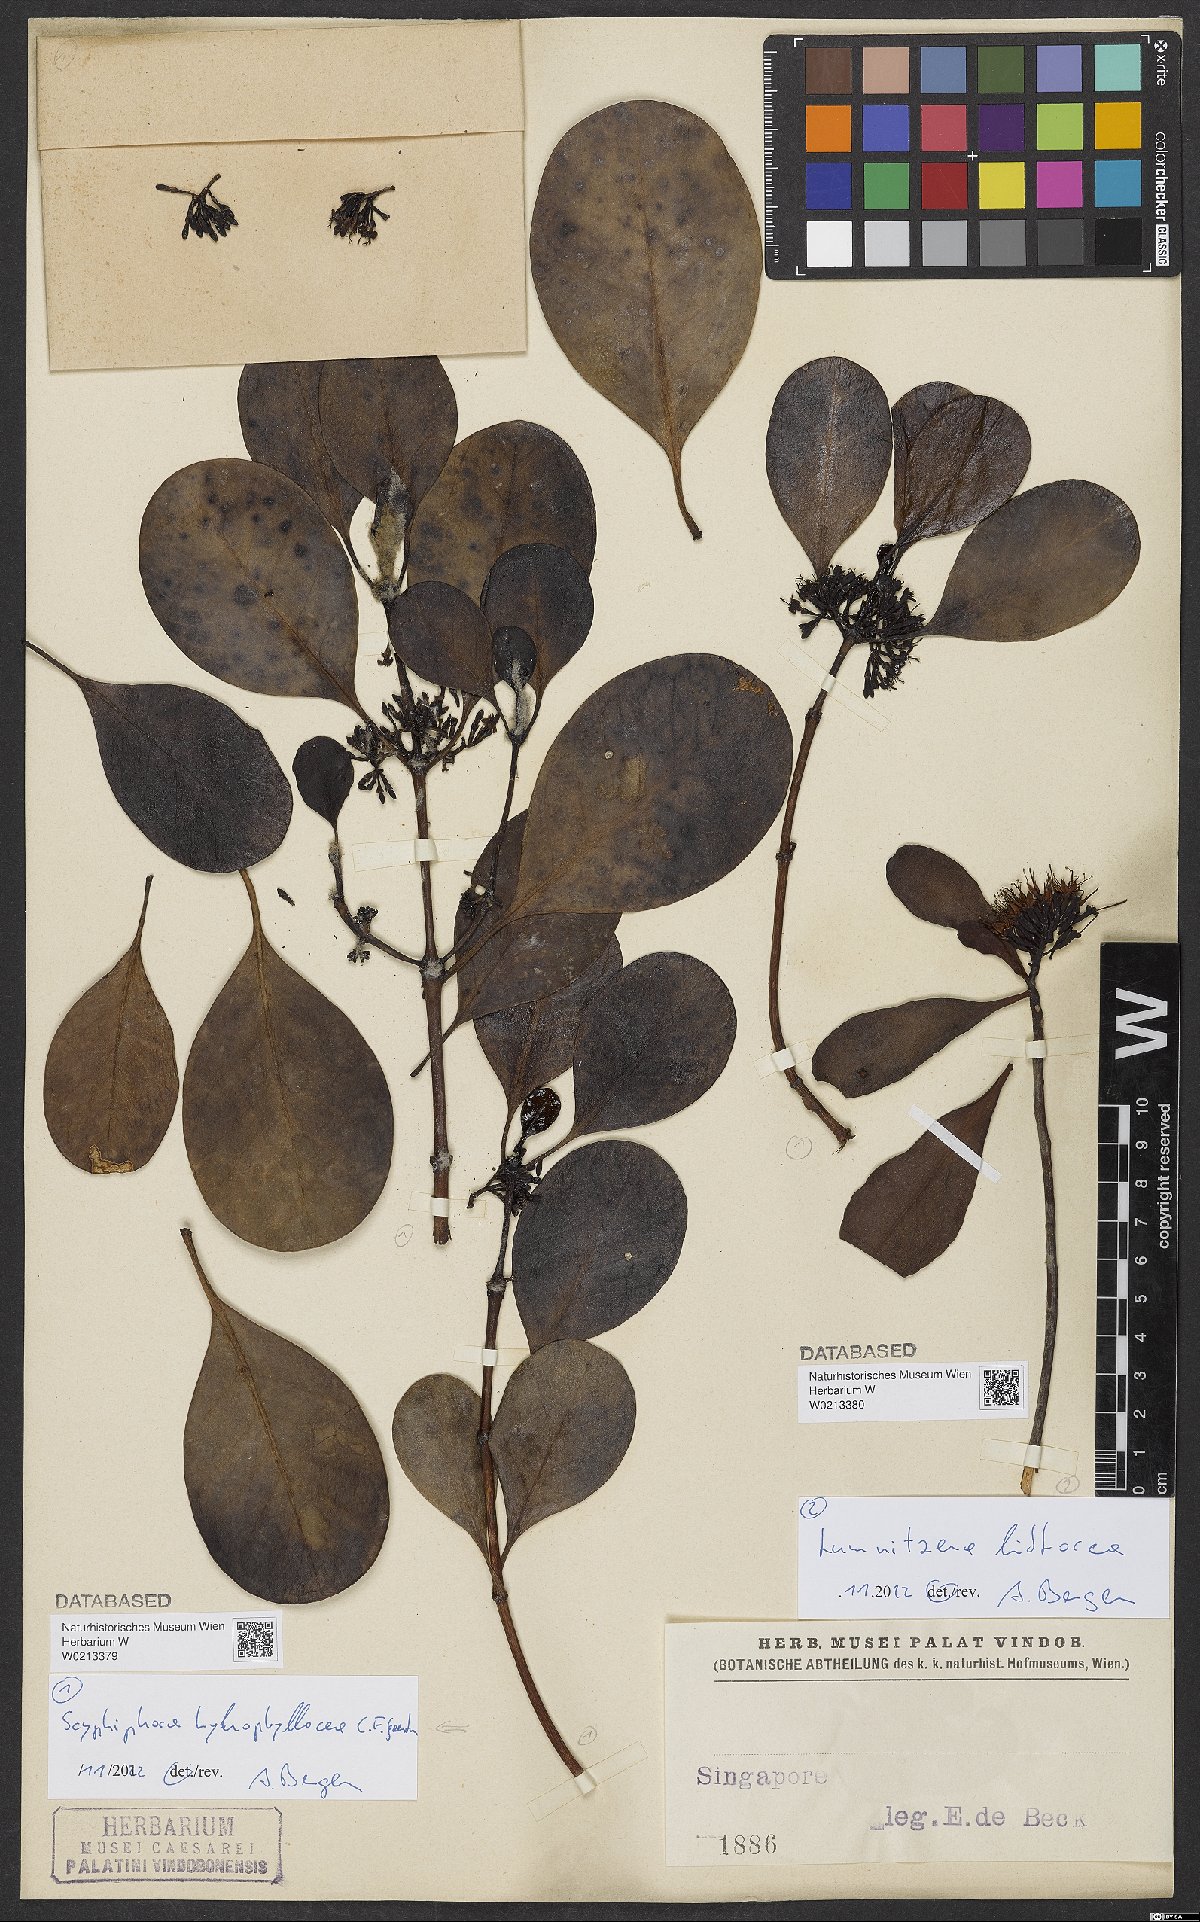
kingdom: Plantae
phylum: Tracheophyta
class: Magnoliopsida
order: Gentianales
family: Rubiaceae
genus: Scyphiphora
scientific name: Scyphiphora hydrophylacea
